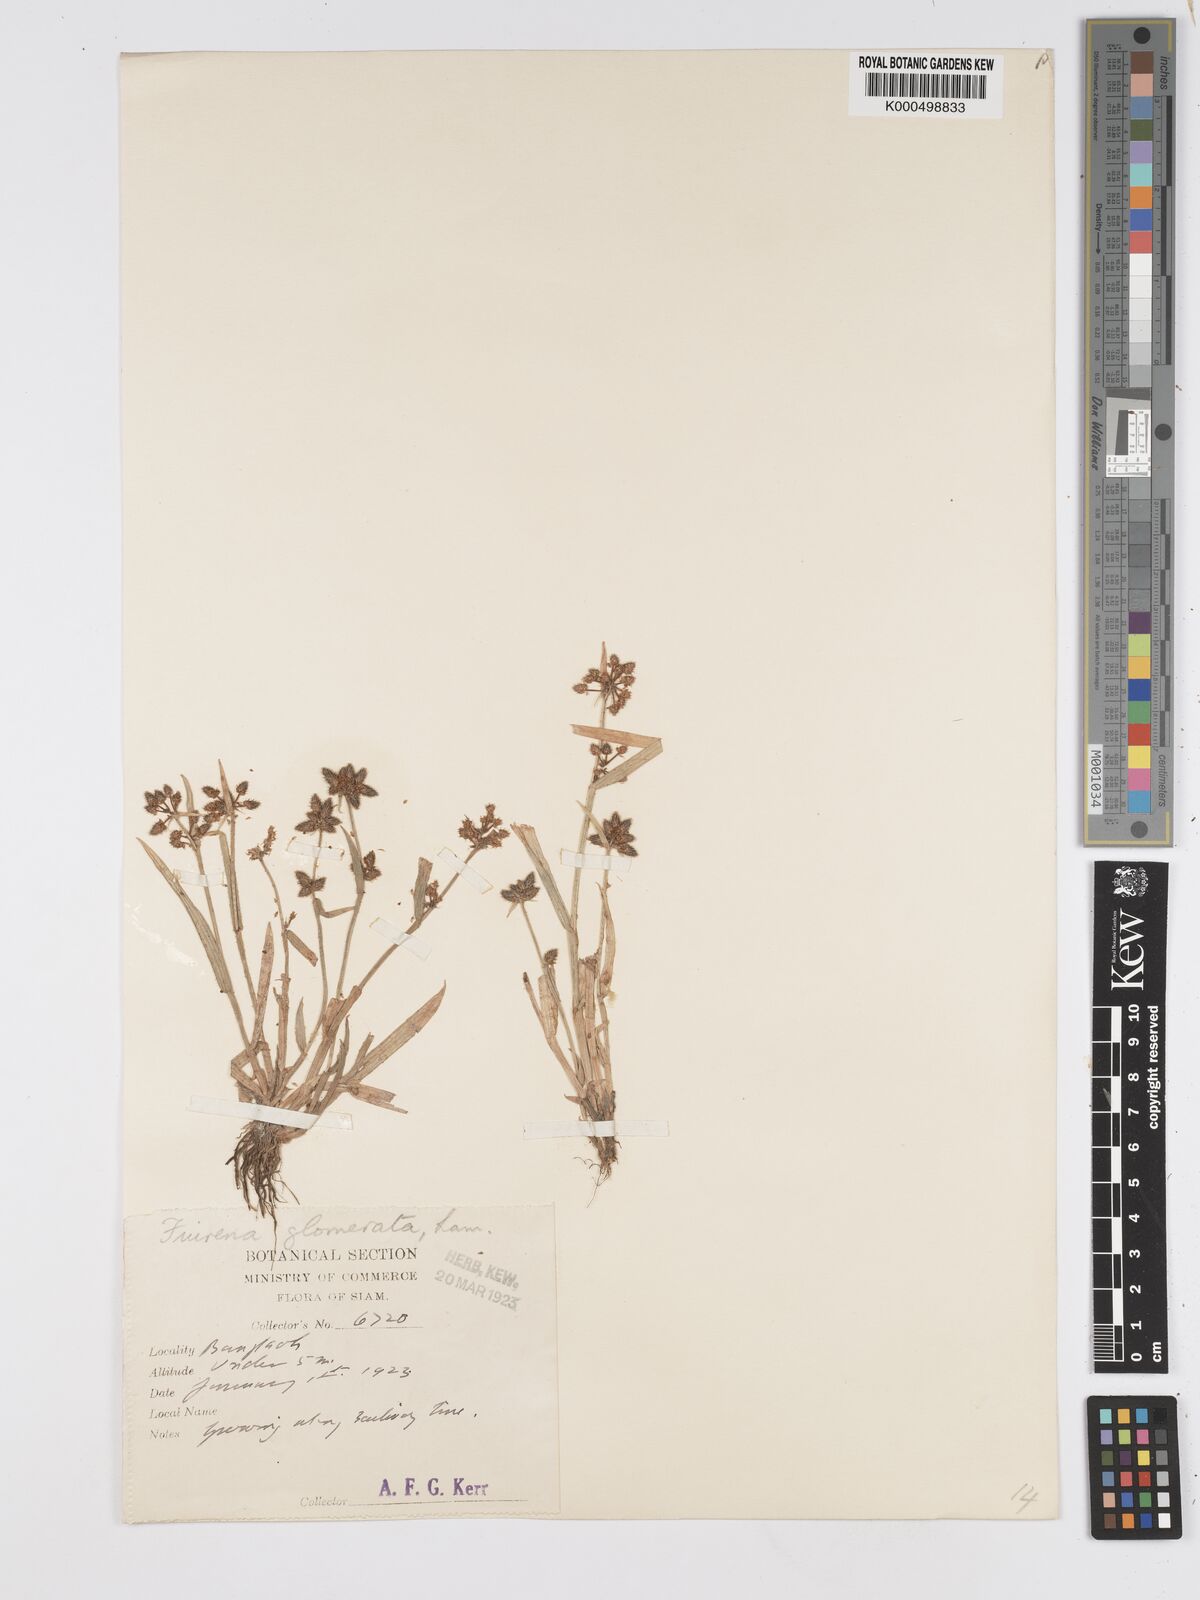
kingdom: Plantae
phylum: Tracheophyta
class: Liliopsida
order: Poales
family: Cyperaceae
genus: Fuirena
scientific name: Fuirena ciliaris
